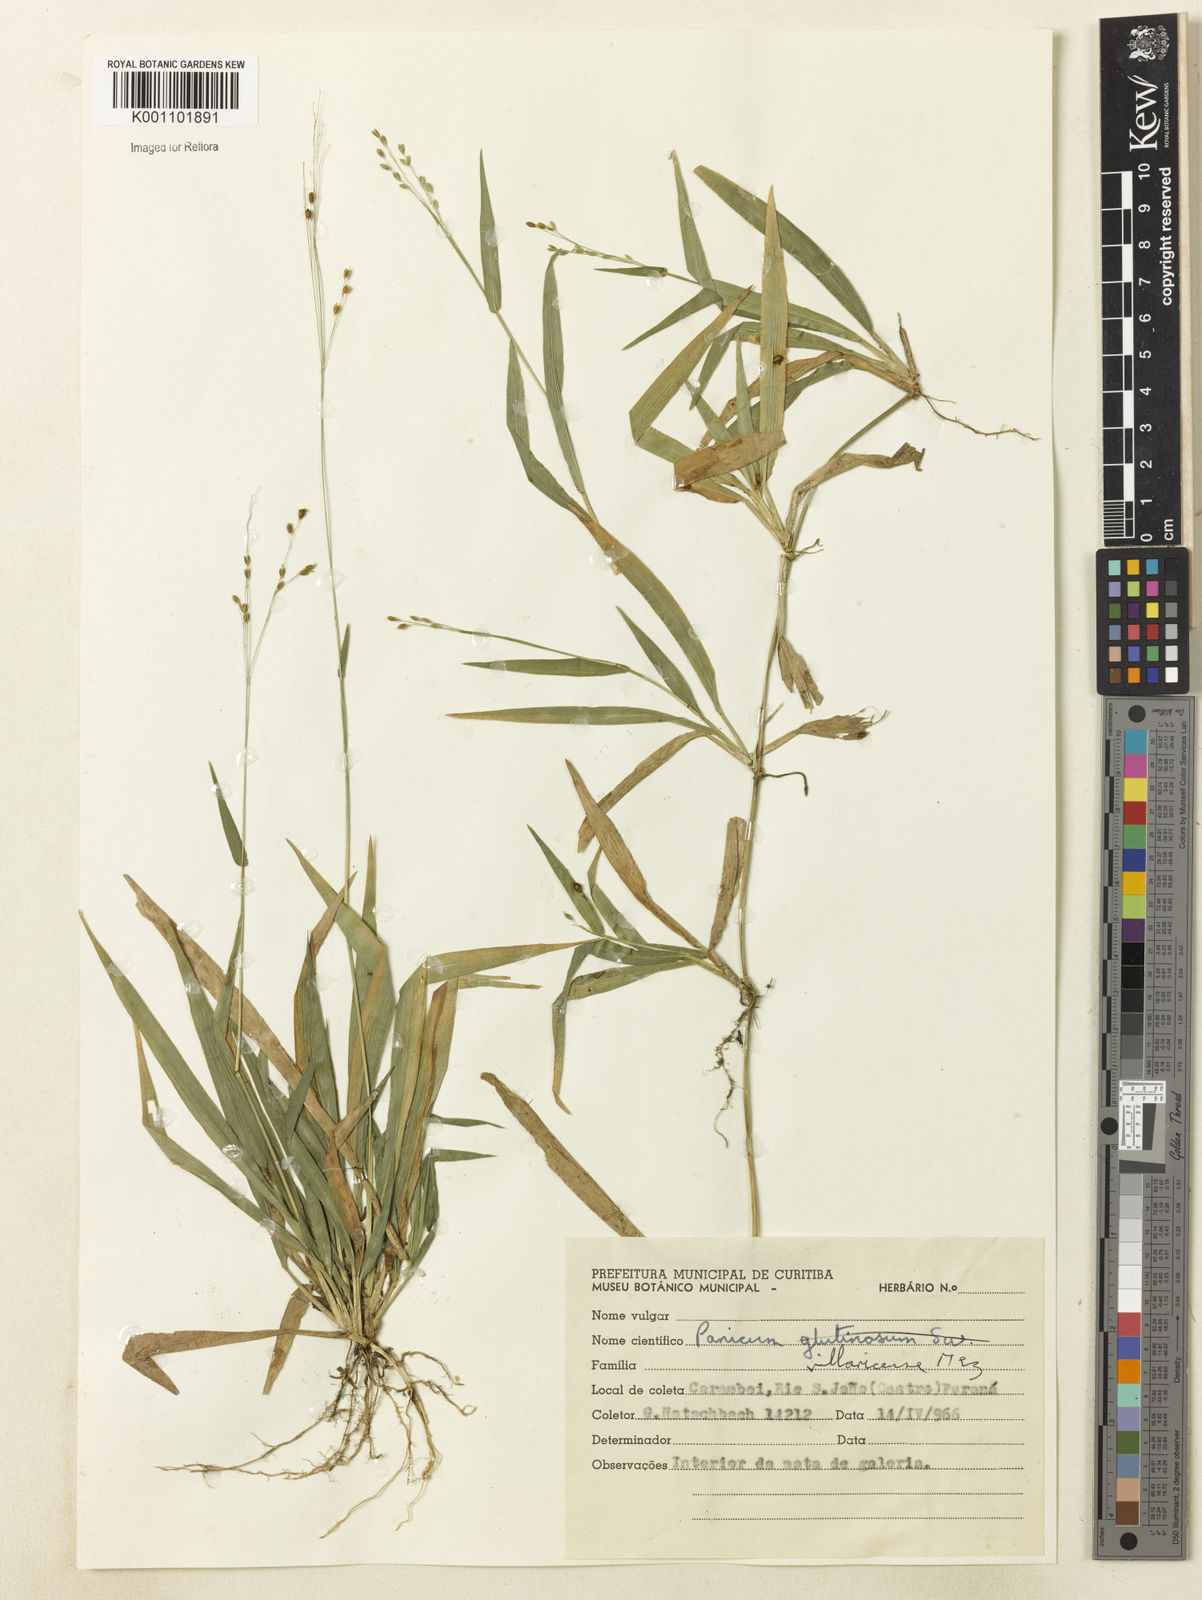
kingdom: Plantae
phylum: Tracheophyta
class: Liliopsida
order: Poales
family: Poaceae
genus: Homolepis
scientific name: Homolepis villaricensis
